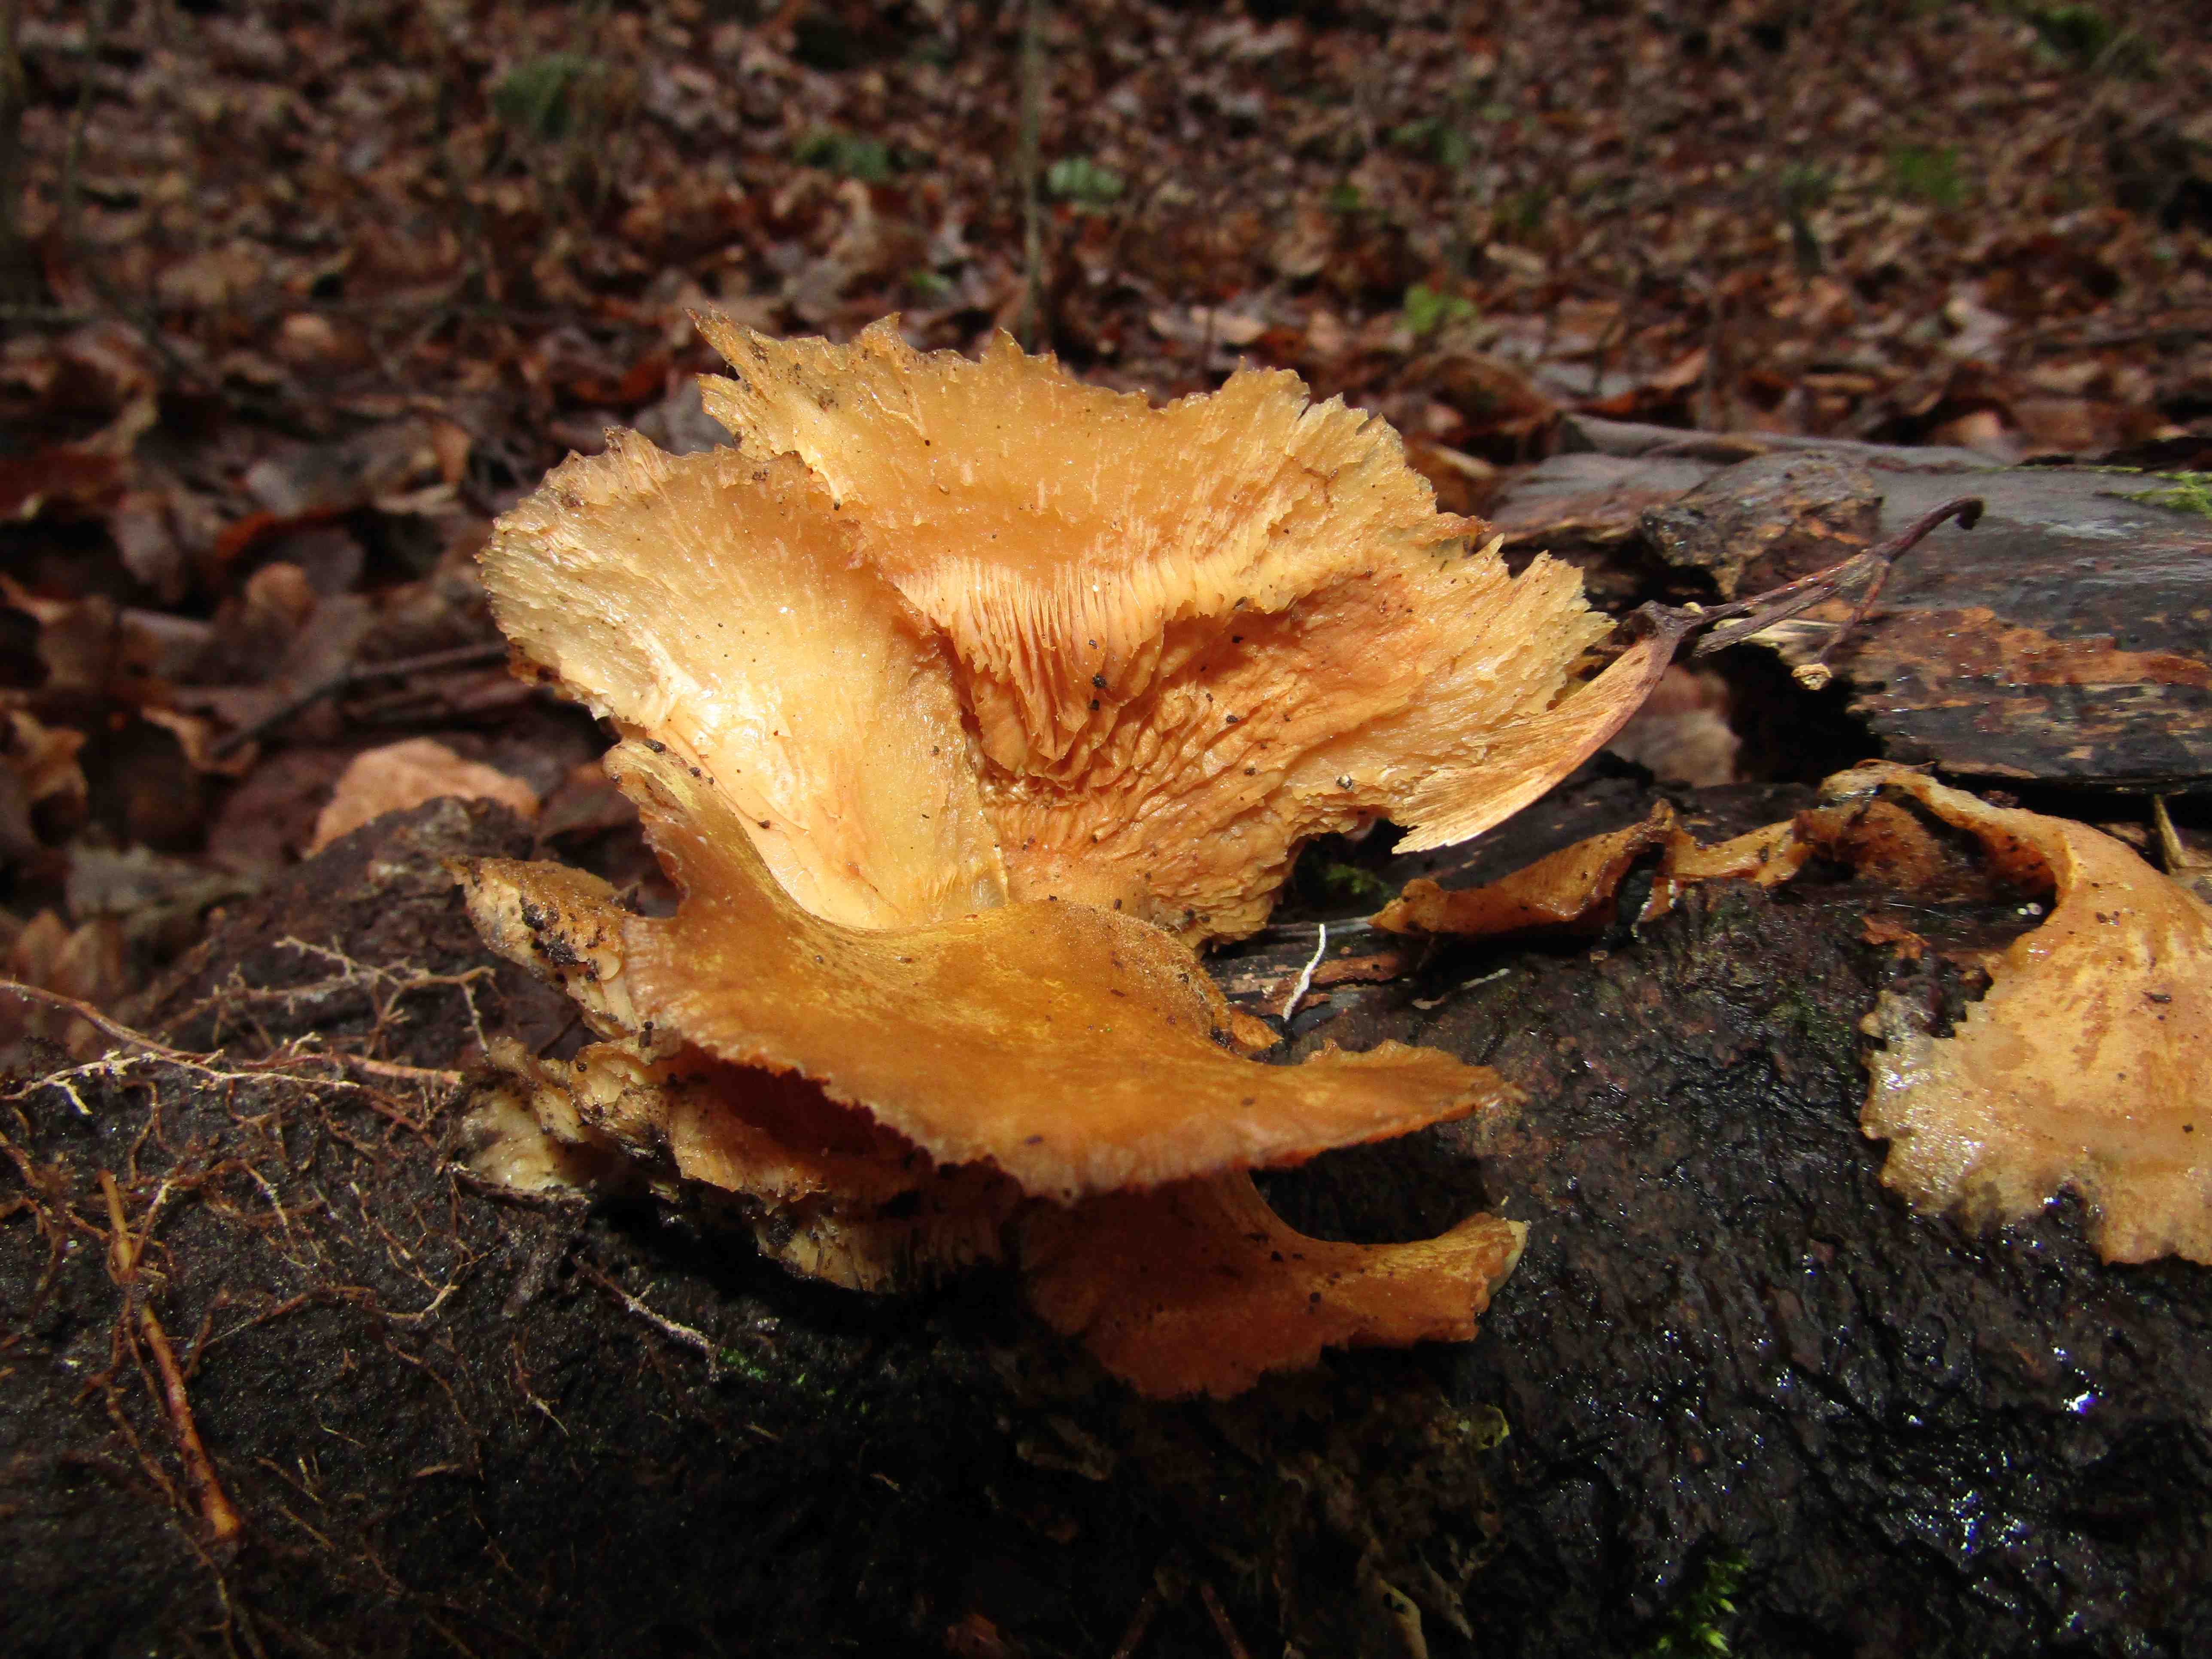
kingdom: Fungi
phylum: Basidiomycota
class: Agaricomycetes
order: Polyporales
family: Meruliaceae
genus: Phlebia
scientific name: Phlebia tremellosa
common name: bævrende åresvamp
